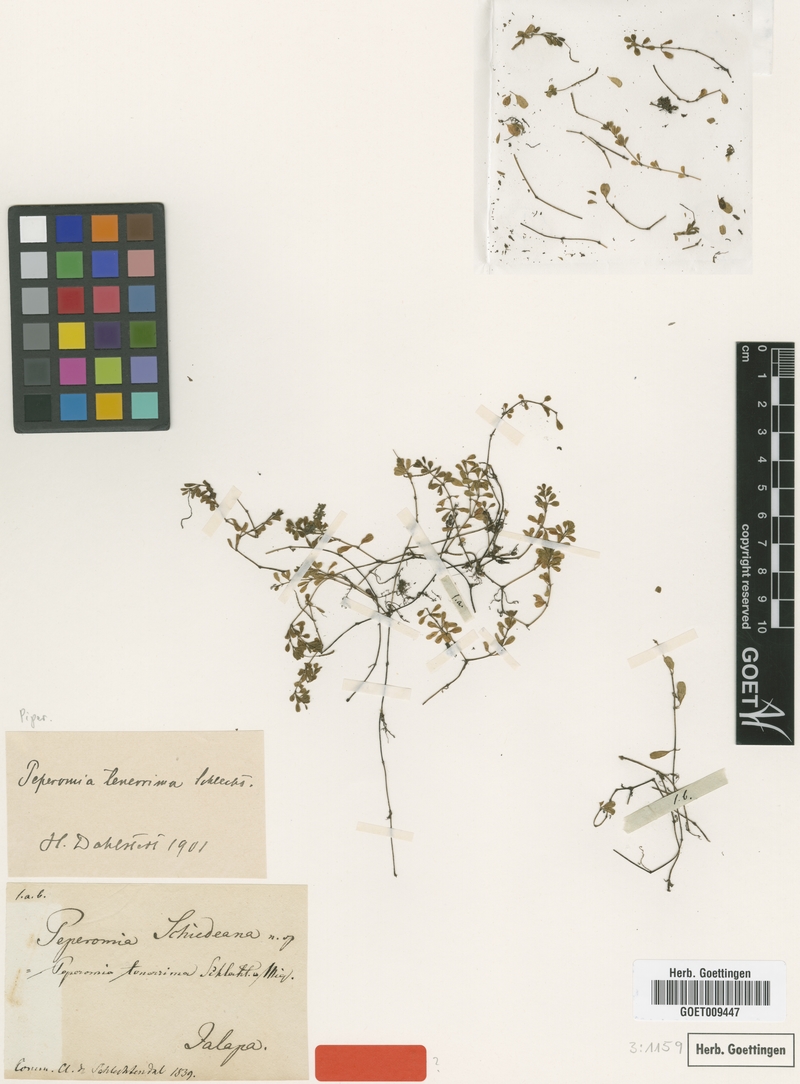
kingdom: Plantae
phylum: Tracheophyta
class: Magnoliopsida
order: Piperales
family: Piperaceae
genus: Peperomia
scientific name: Peperomia tenerrima
